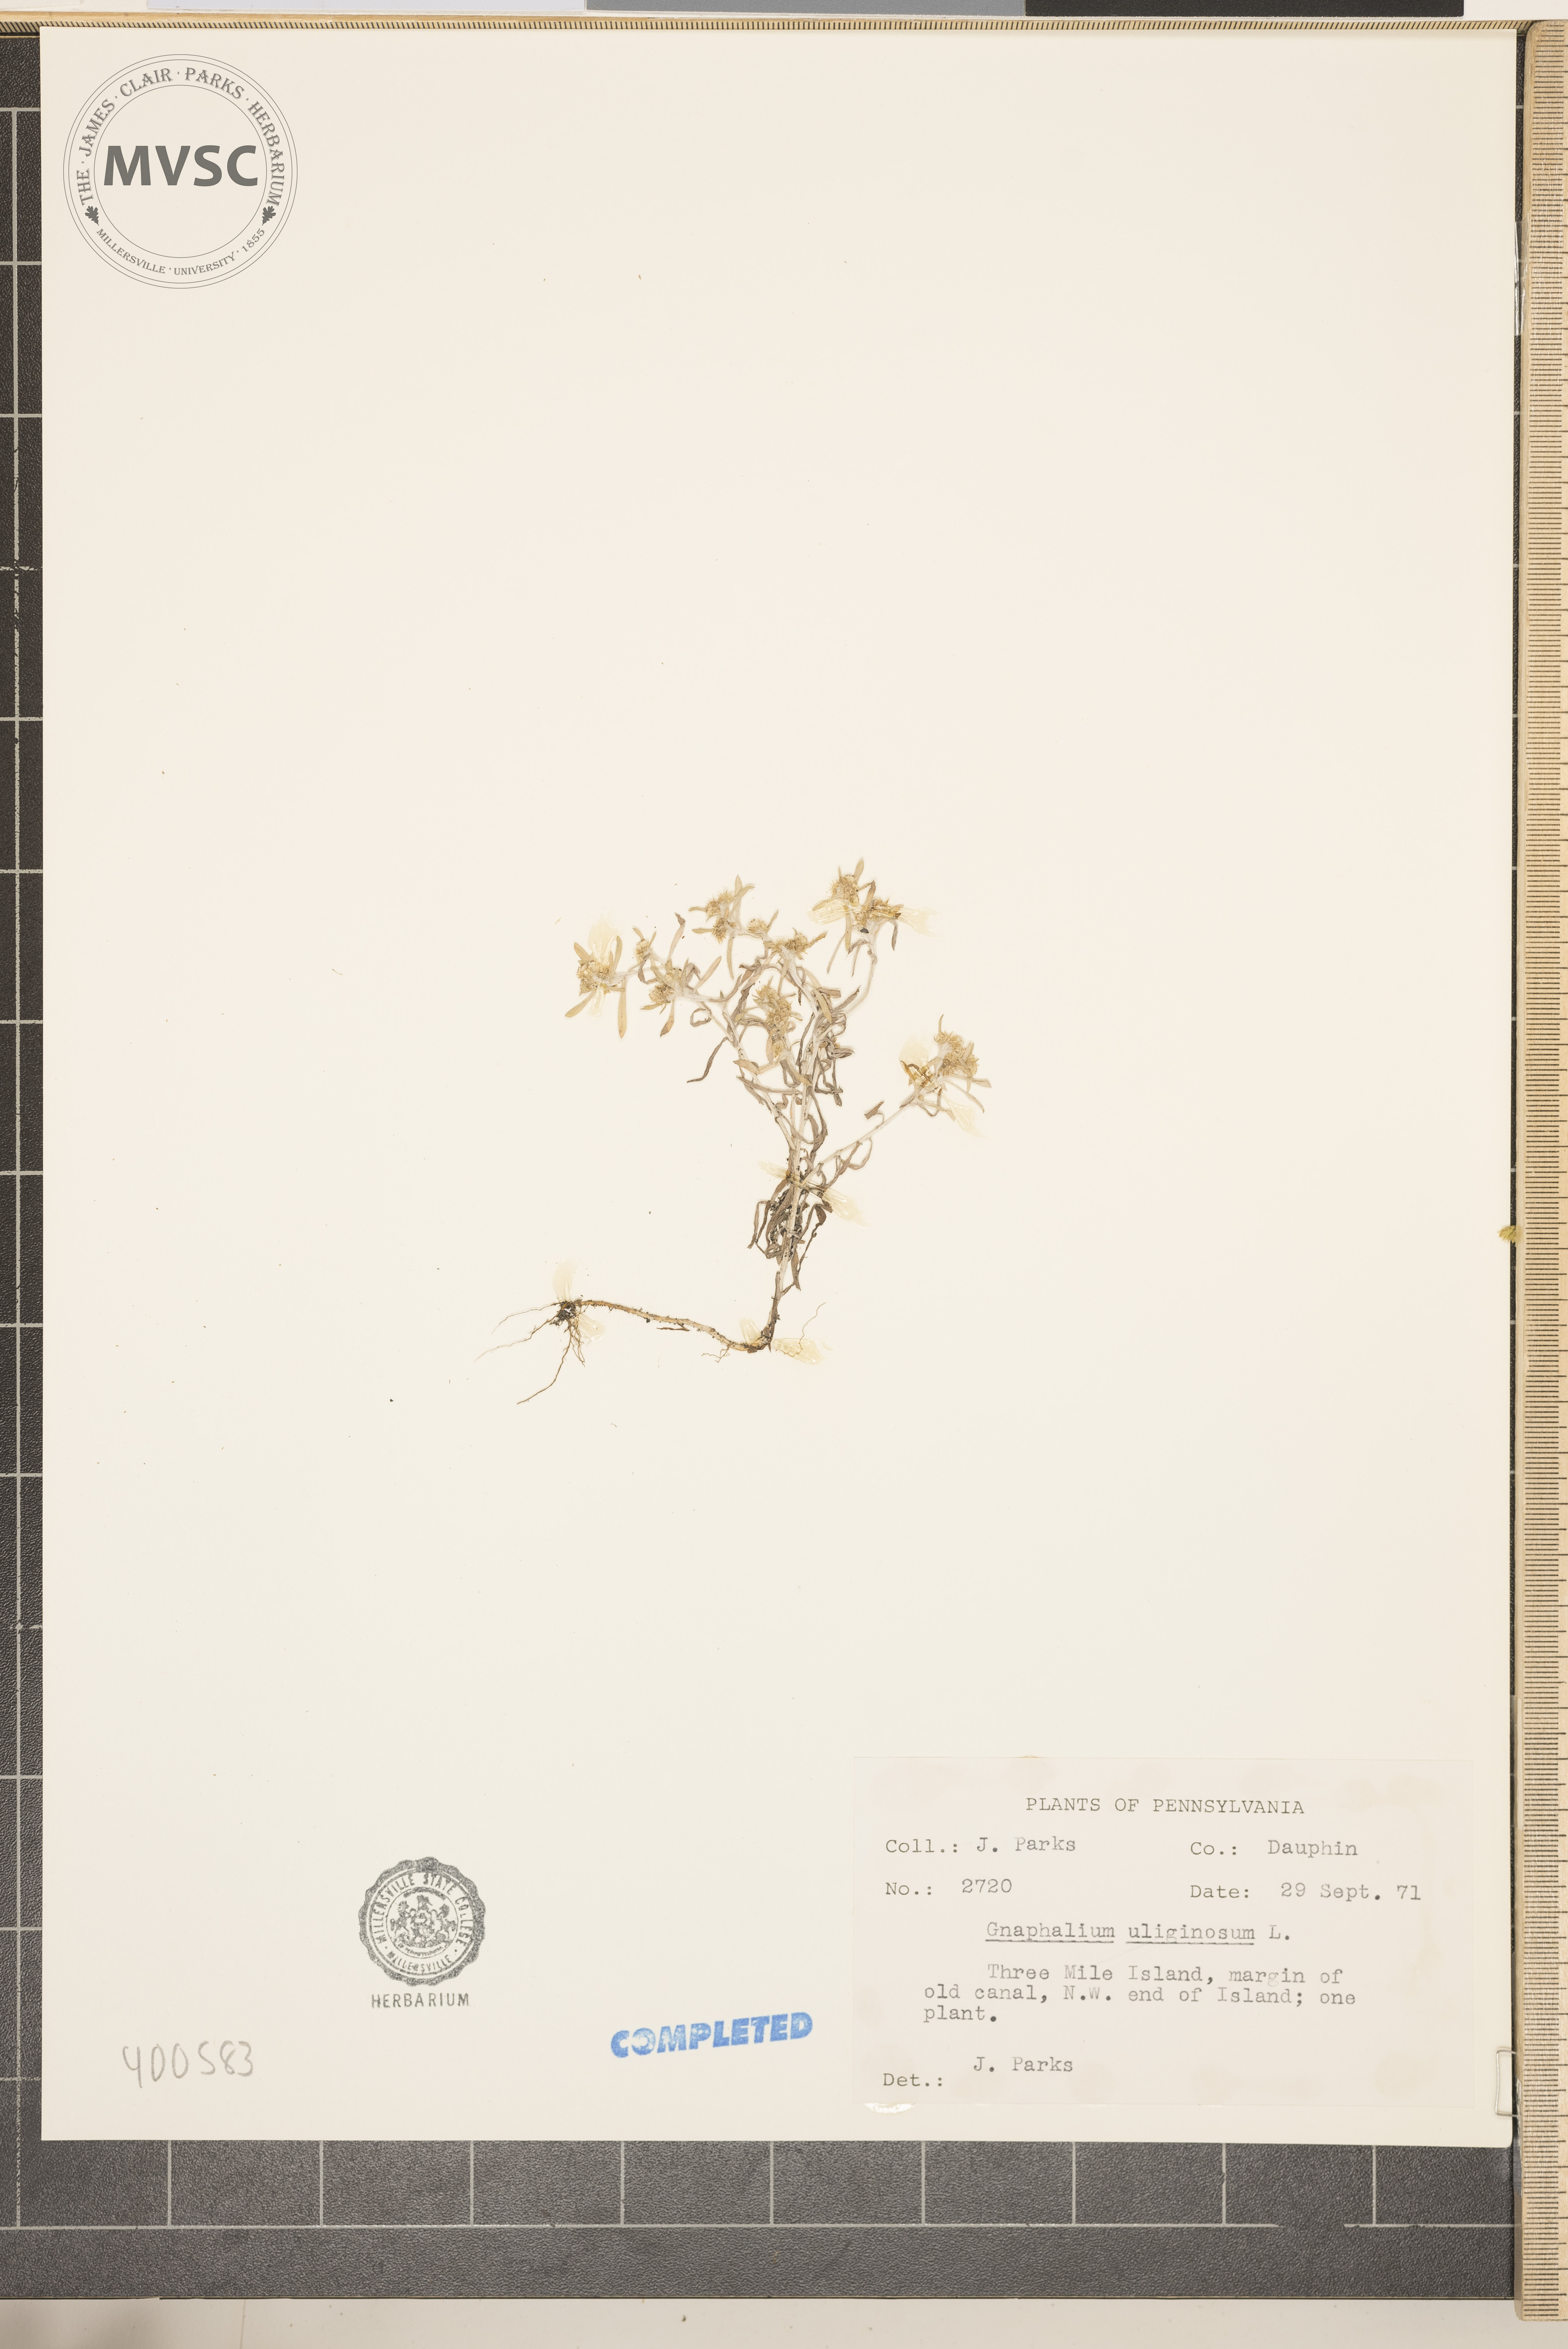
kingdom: Plantae
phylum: Tracheophyta
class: Magnoliopsida
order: Asterales
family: Asteraceae
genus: Gnaphalium
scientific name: Gnaphalium uliginosum
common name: Marsh cudweed
